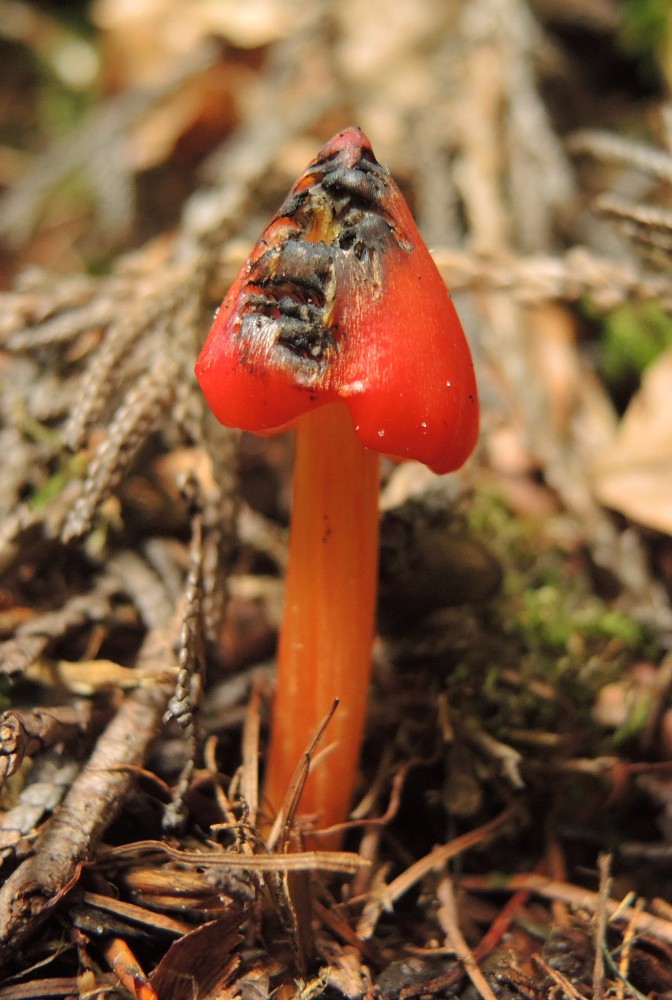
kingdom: Fungi
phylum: Basidiomycota
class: Agaricomycetes
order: Agaricales
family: Hygrophoraceae
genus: Hygrocybe
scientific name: Hygrocybe conica
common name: kegle-vokshat
